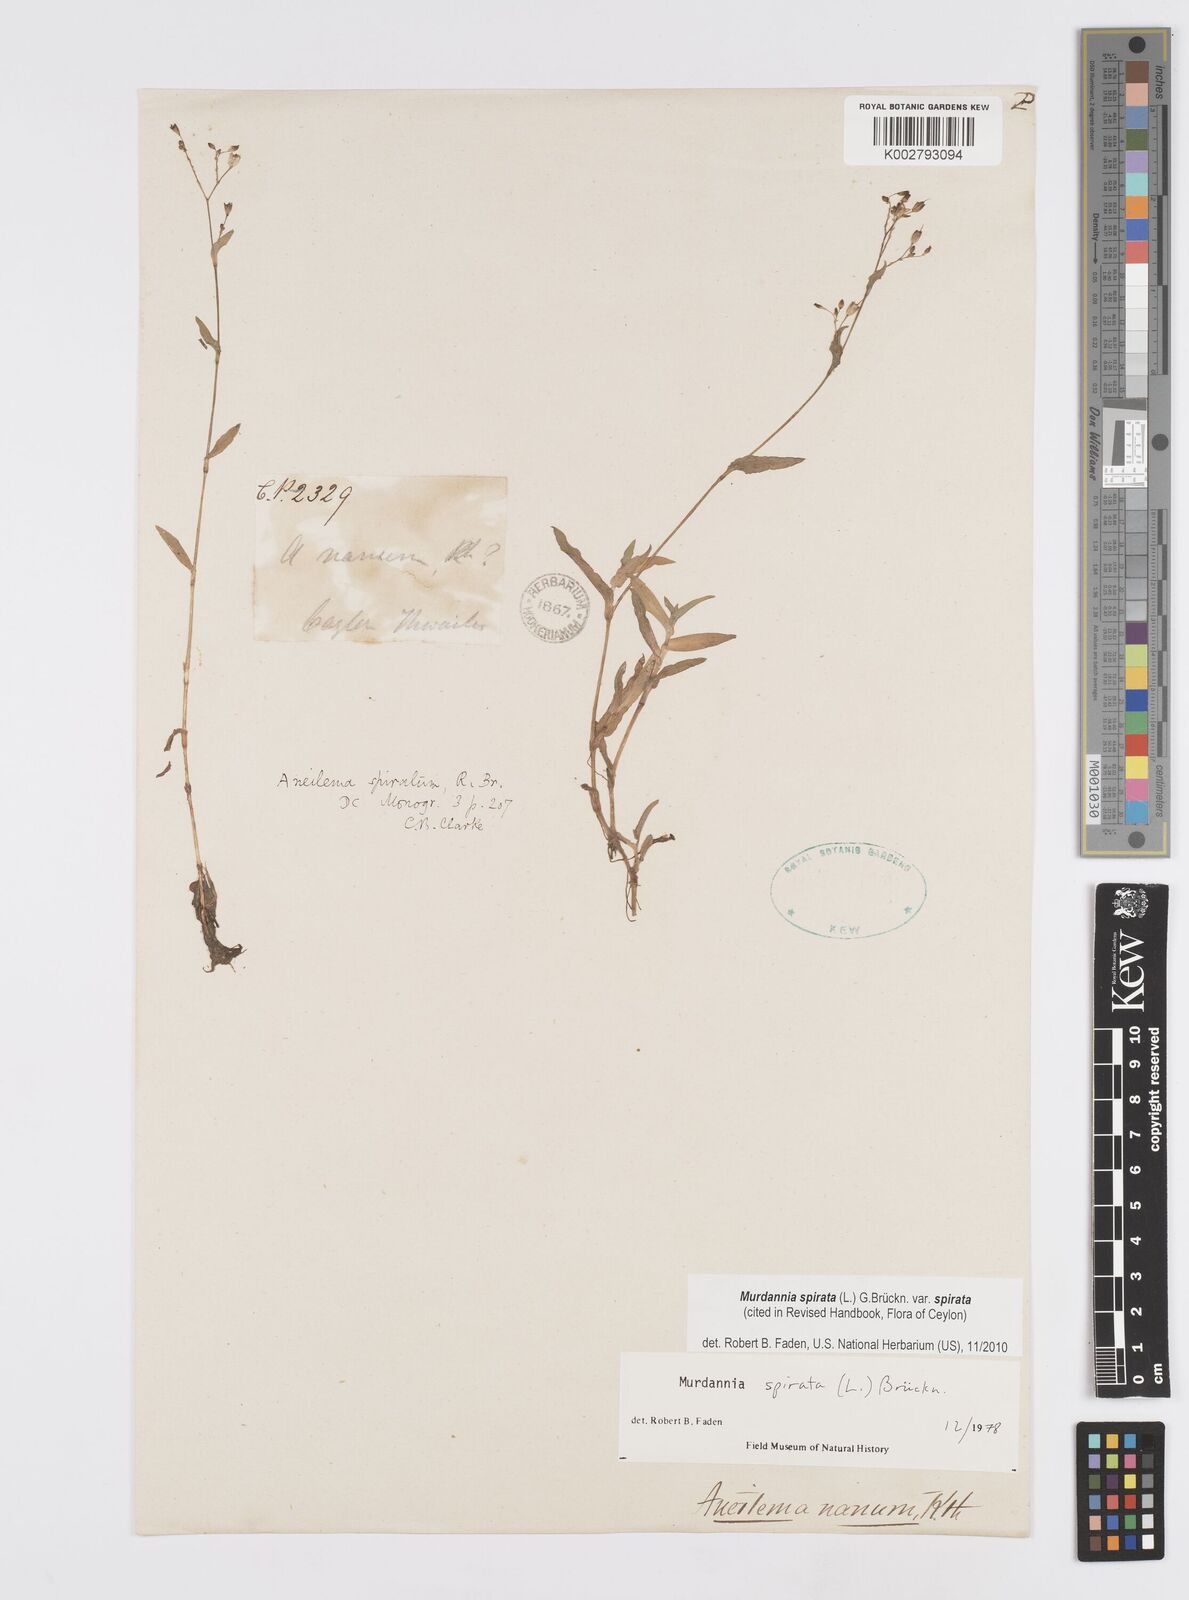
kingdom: Plantae
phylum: Tracheophyta
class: Liliopsida
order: Commelinales
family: Commelinaceae
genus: Murdannia
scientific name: Murdannia spirata
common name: Asiatic dewflower
